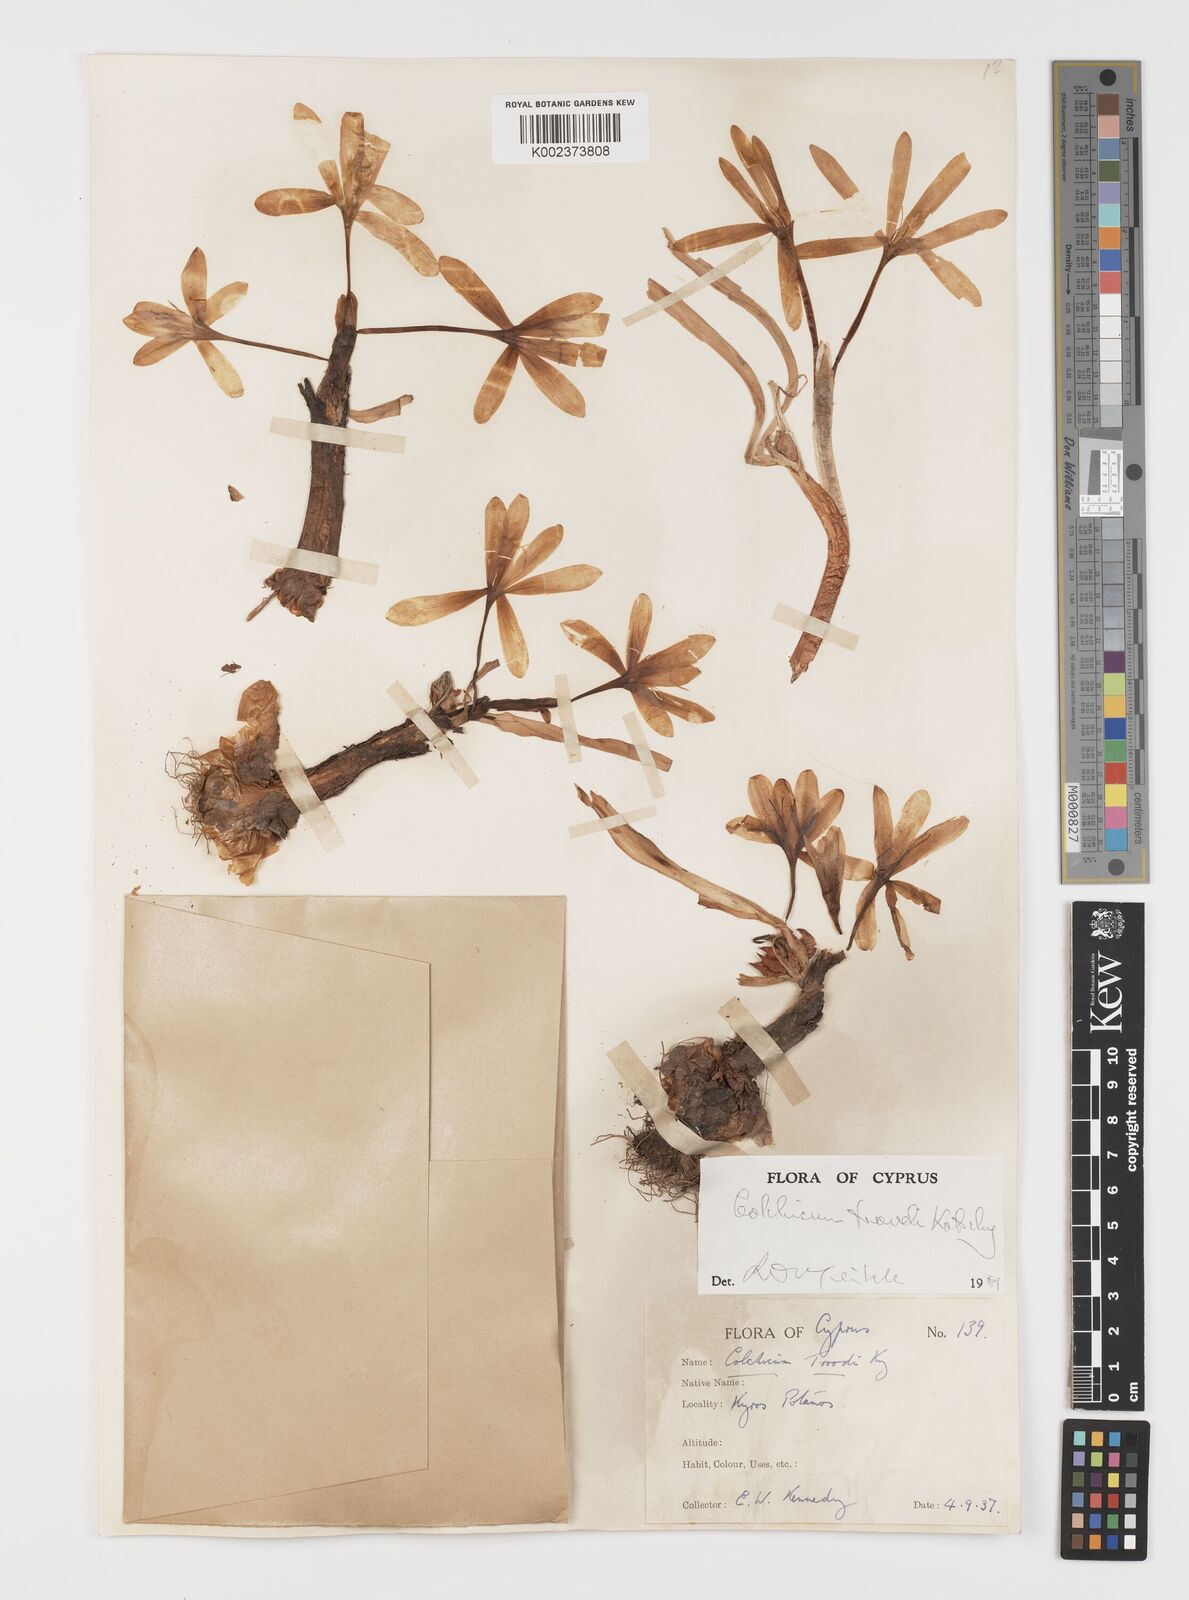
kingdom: Plantae
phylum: Tracheophyta
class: Liliopsida
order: Liliales
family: Colchicaceae
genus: Colchicum
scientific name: Colchicum troodi
